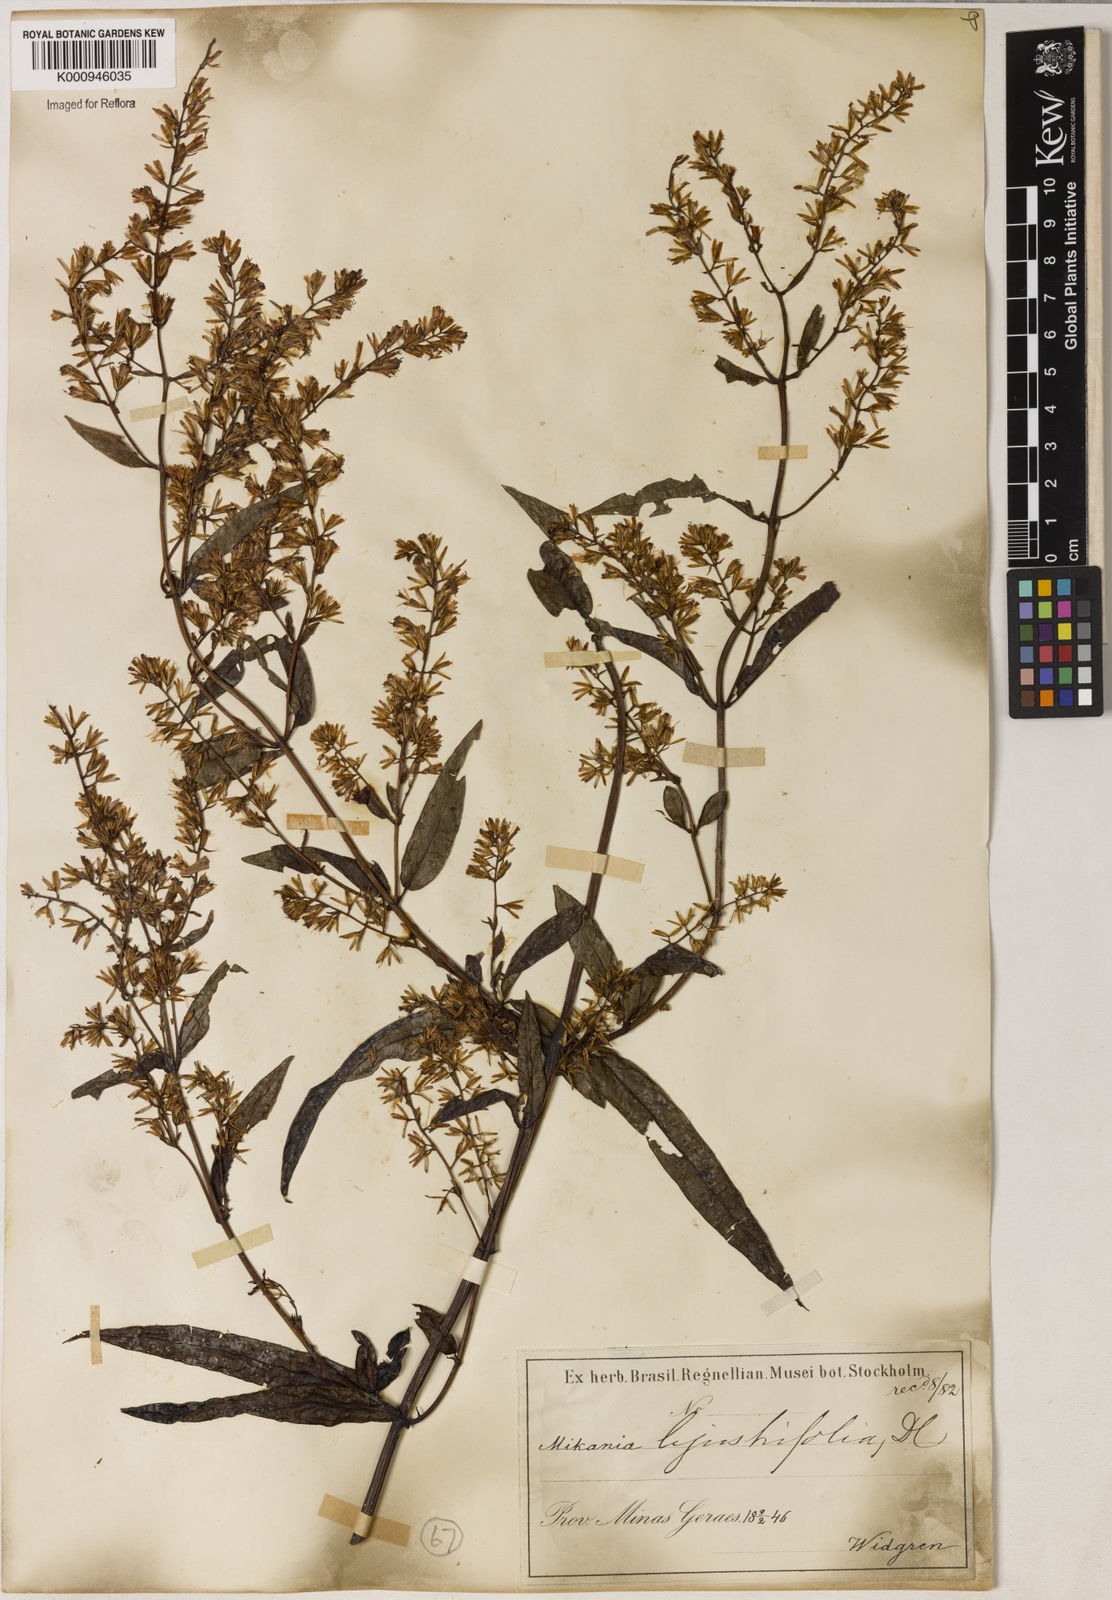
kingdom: Plantae
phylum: Tracheophyta
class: Magnoliopsida
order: Asterales
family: Asteraceae
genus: Mikania
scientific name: Mikania ligustrifolia
